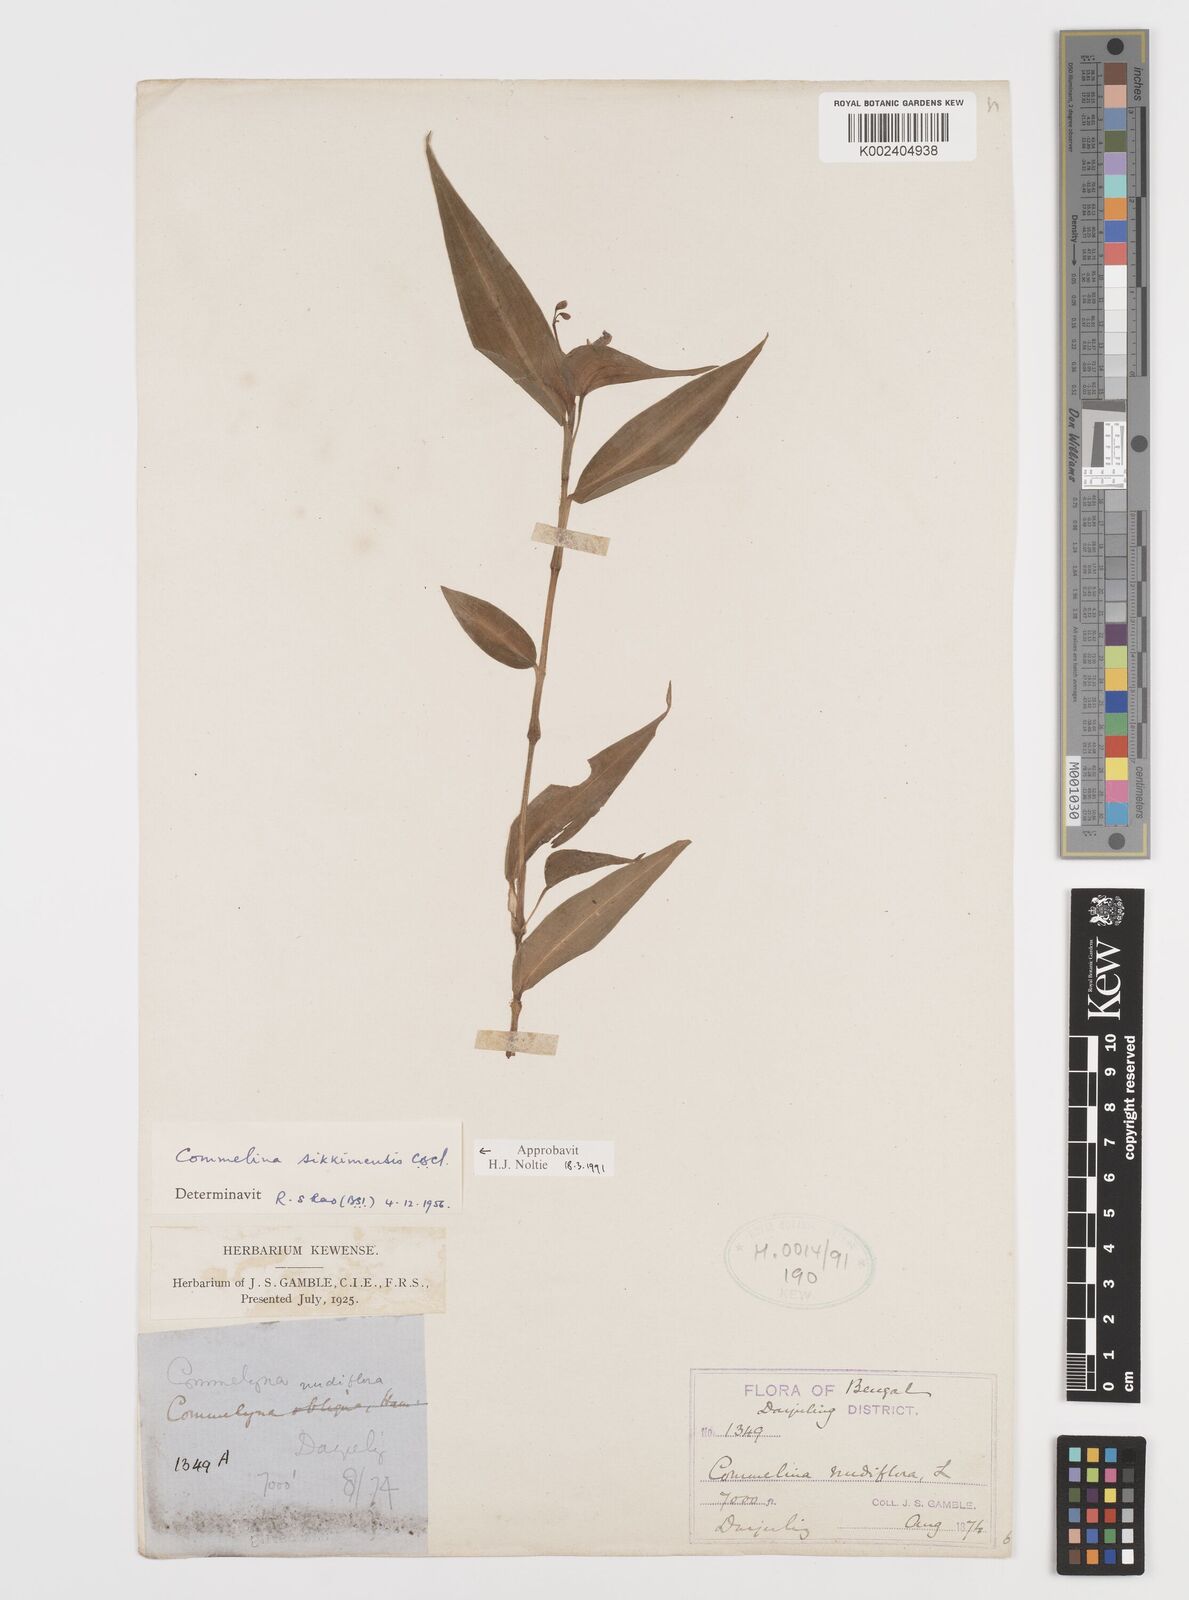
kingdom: Plantae
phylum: Tracheophyta
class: Liliopsida
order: Commelinales
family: Commelinaceae
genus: Commelina
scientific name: Commelina sikkimensis
